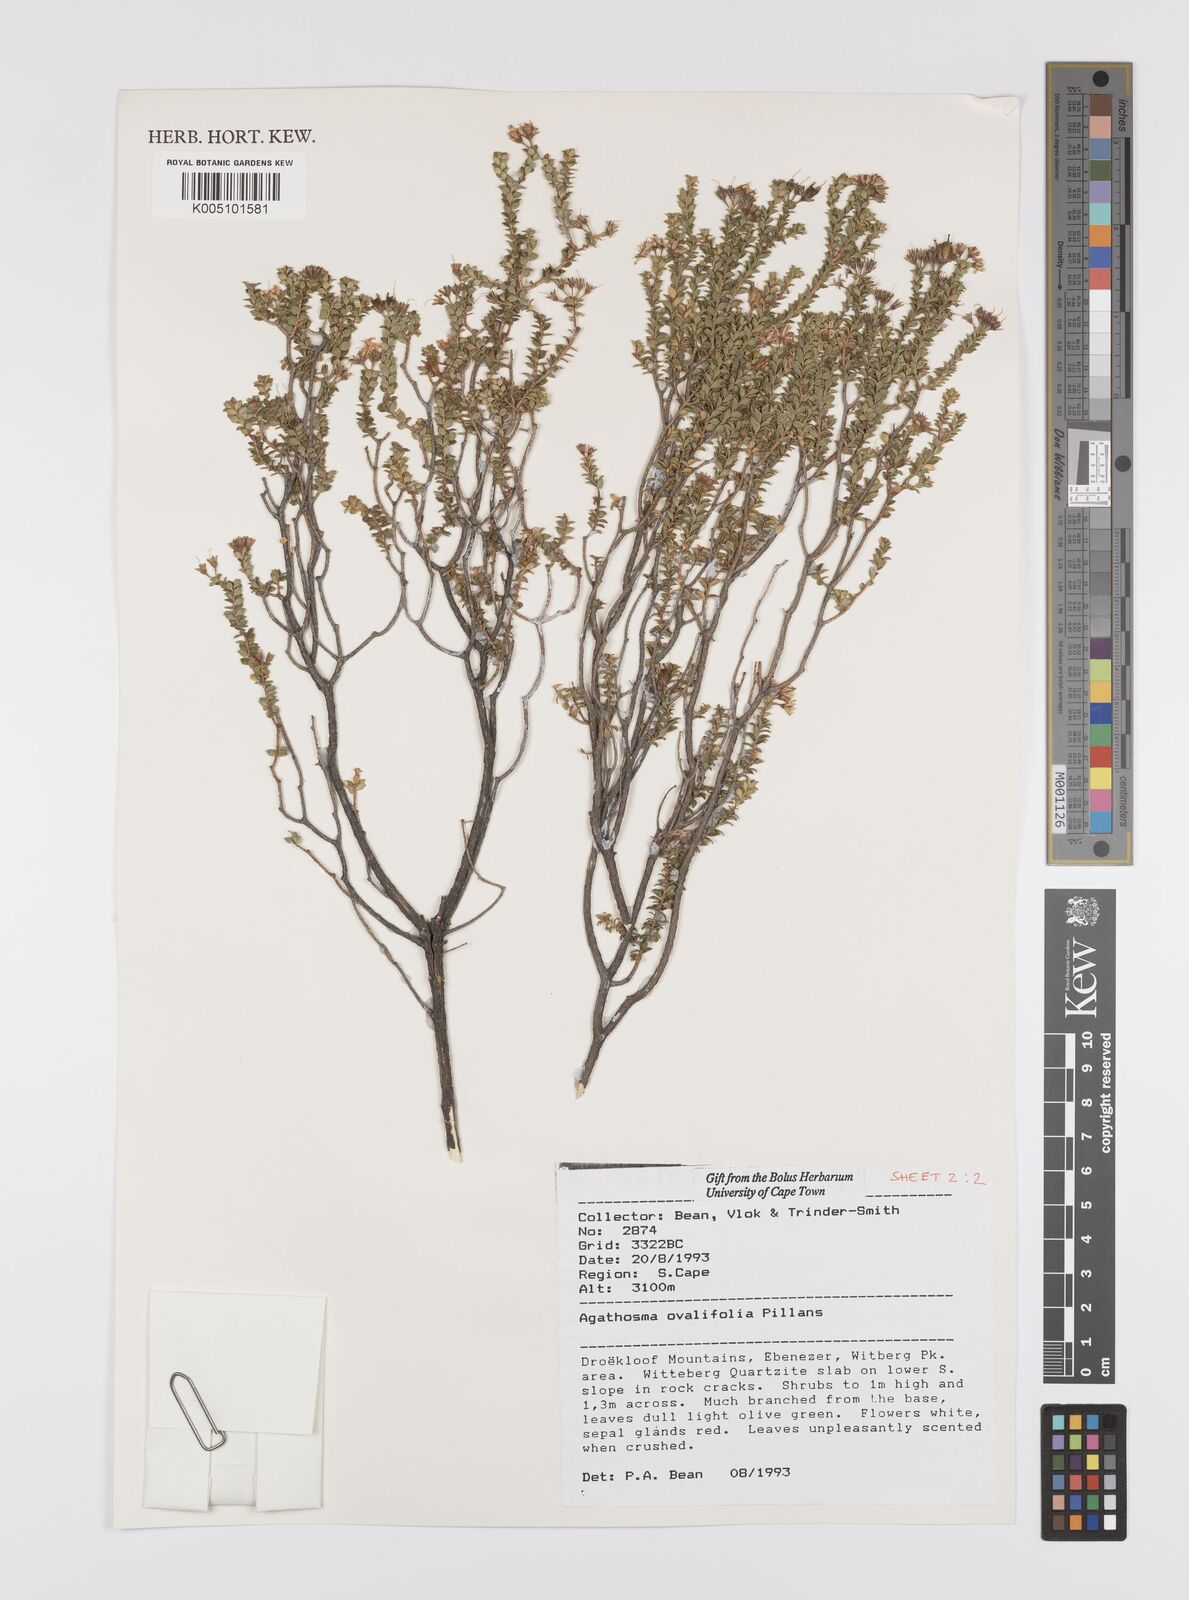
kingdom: Plantae
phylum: Tracheophyta
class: Magnoliopsida
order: Sapindales
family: Rutaceae
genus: Agathosma
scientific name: Agathosma ovalifolia
